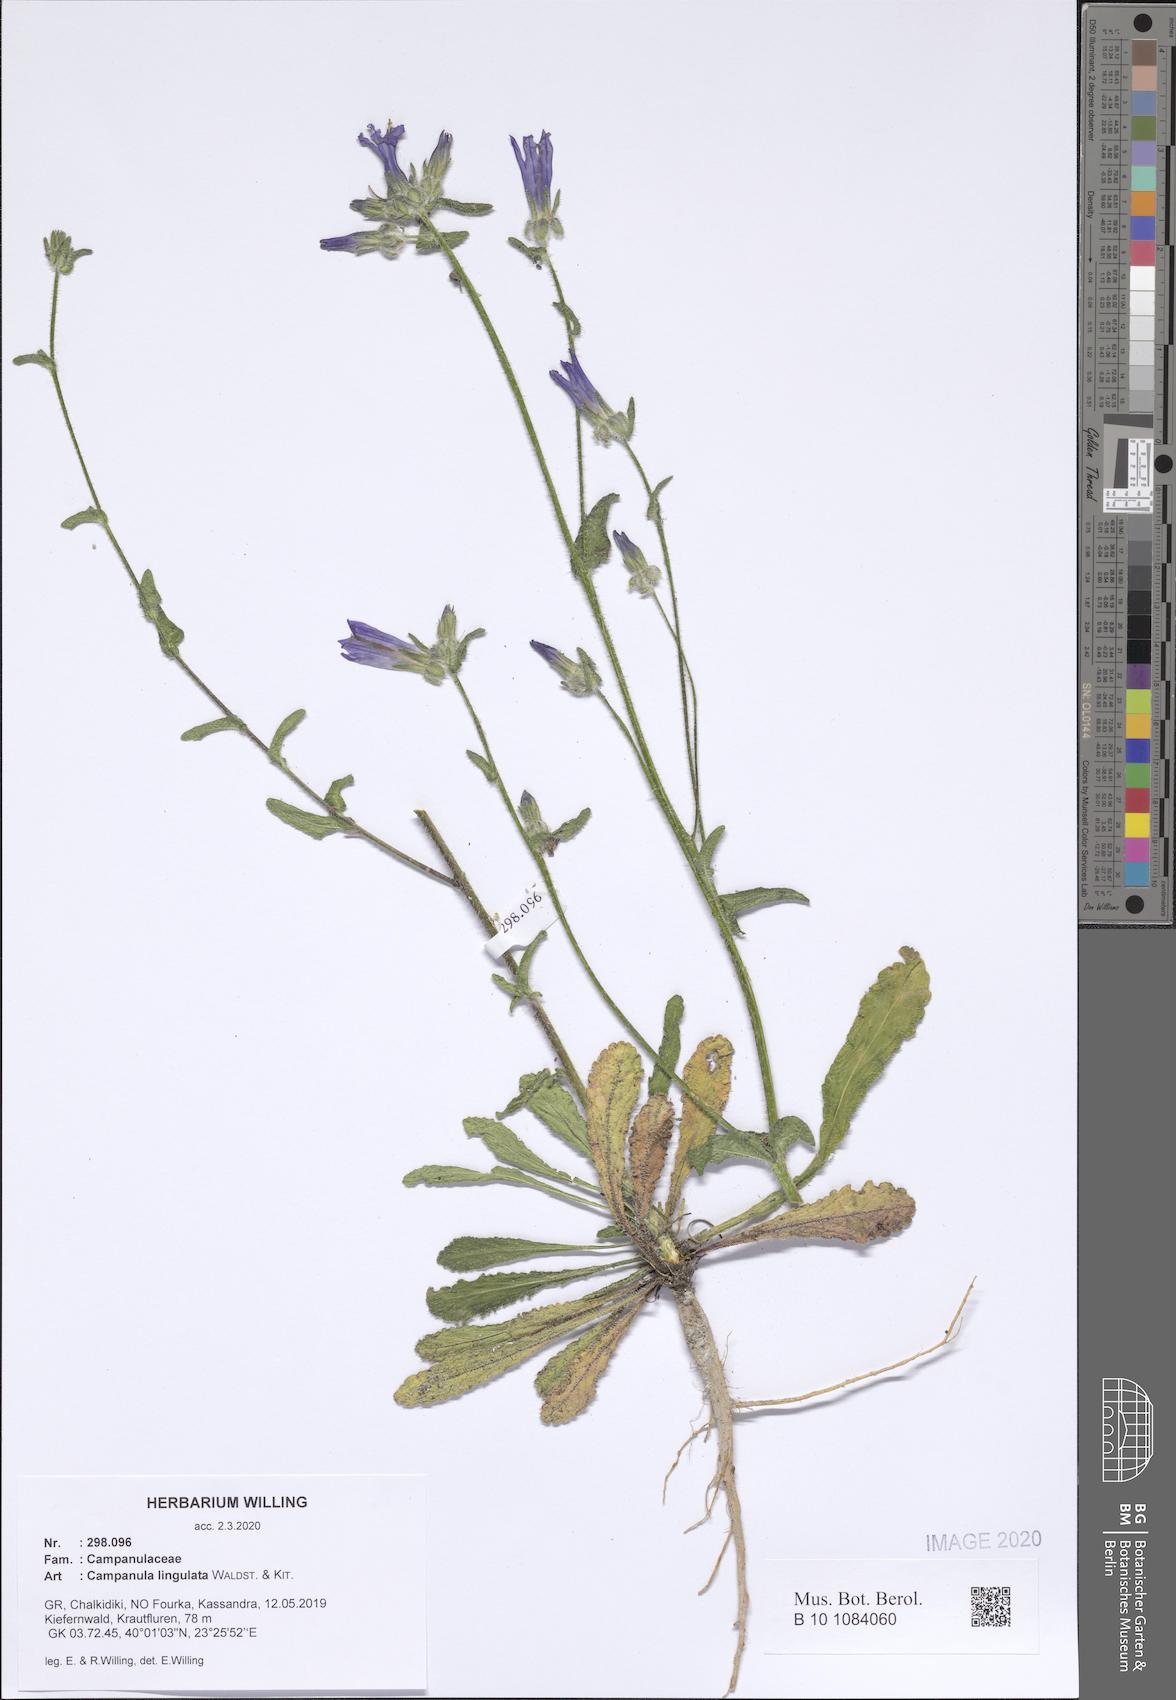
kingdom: Plantae
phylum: Tracheophyta
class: Magnoliopsida
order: Asterales
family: Campanulaceae
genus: Campanula
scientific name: Campanula lingulata
